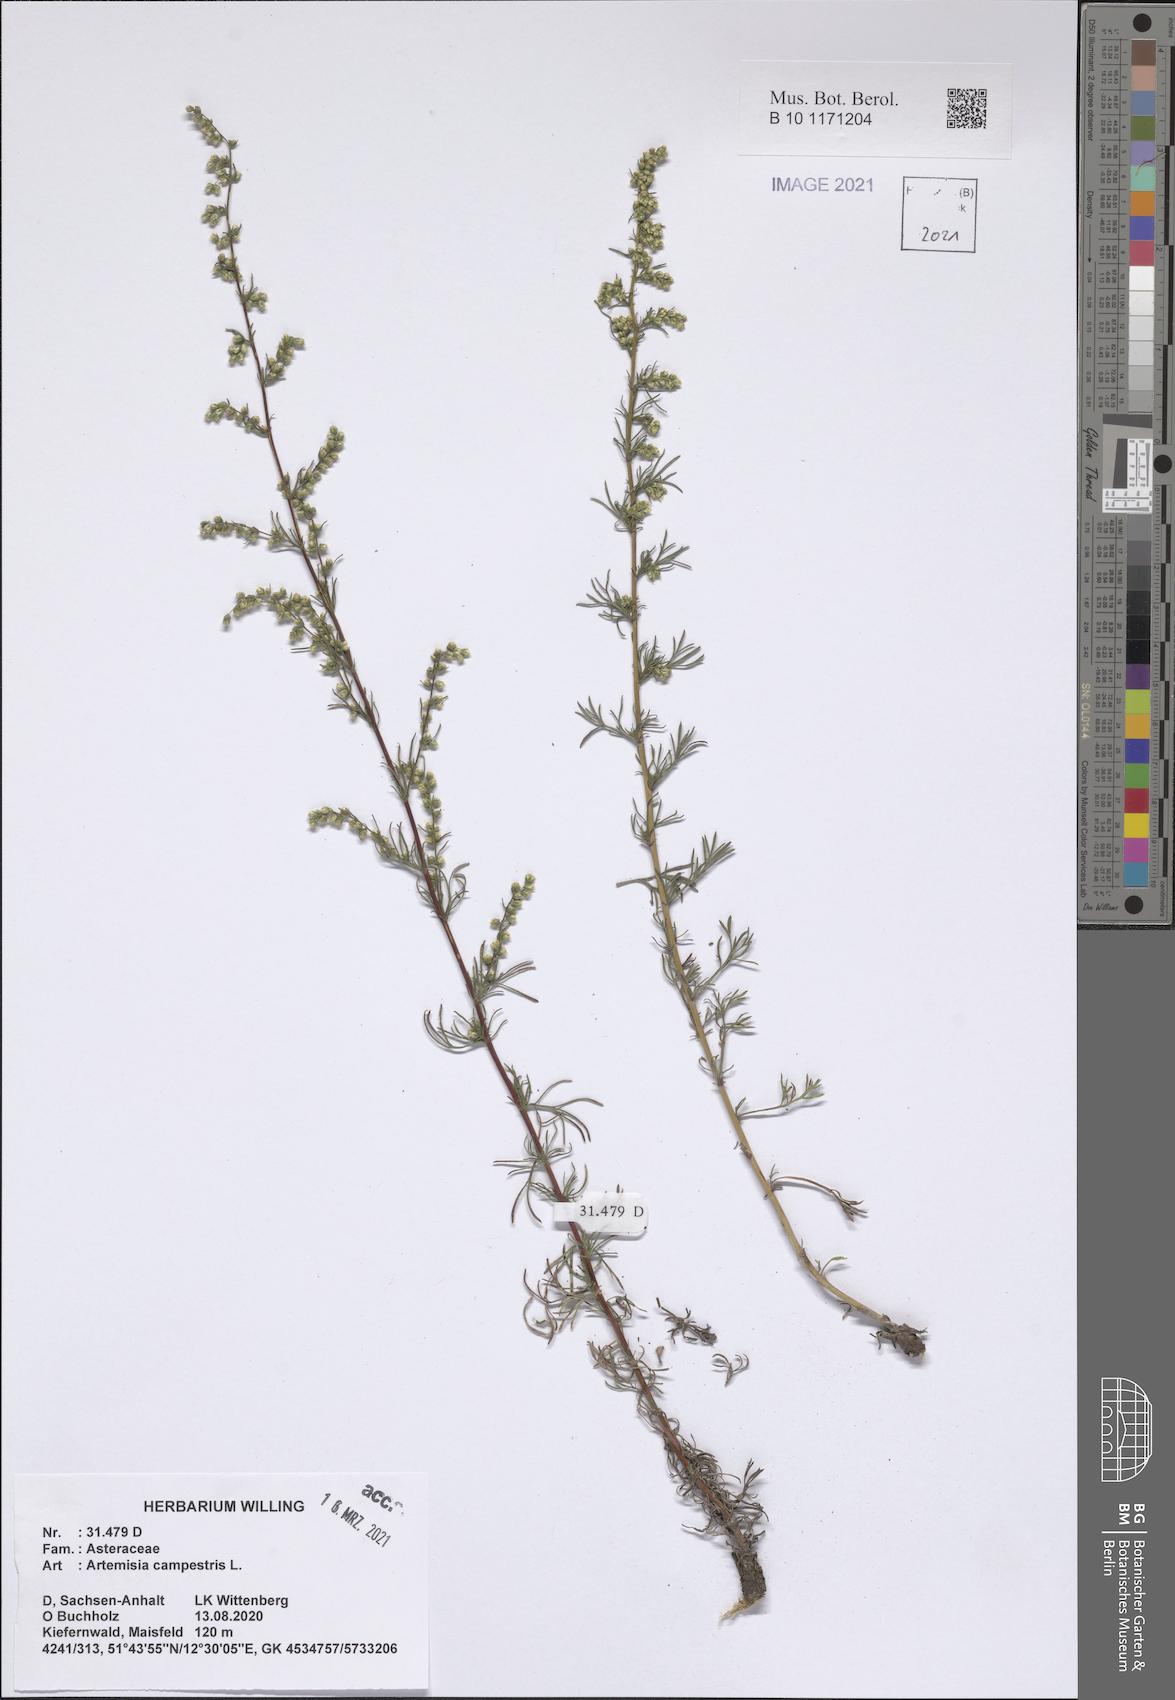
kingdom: Plantae
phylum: Tracheophyta
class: Magnoliopsida
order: Asterales
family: Asteraceae
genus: Artemisia
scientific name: Artemisia campestris
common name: Field wormwood
